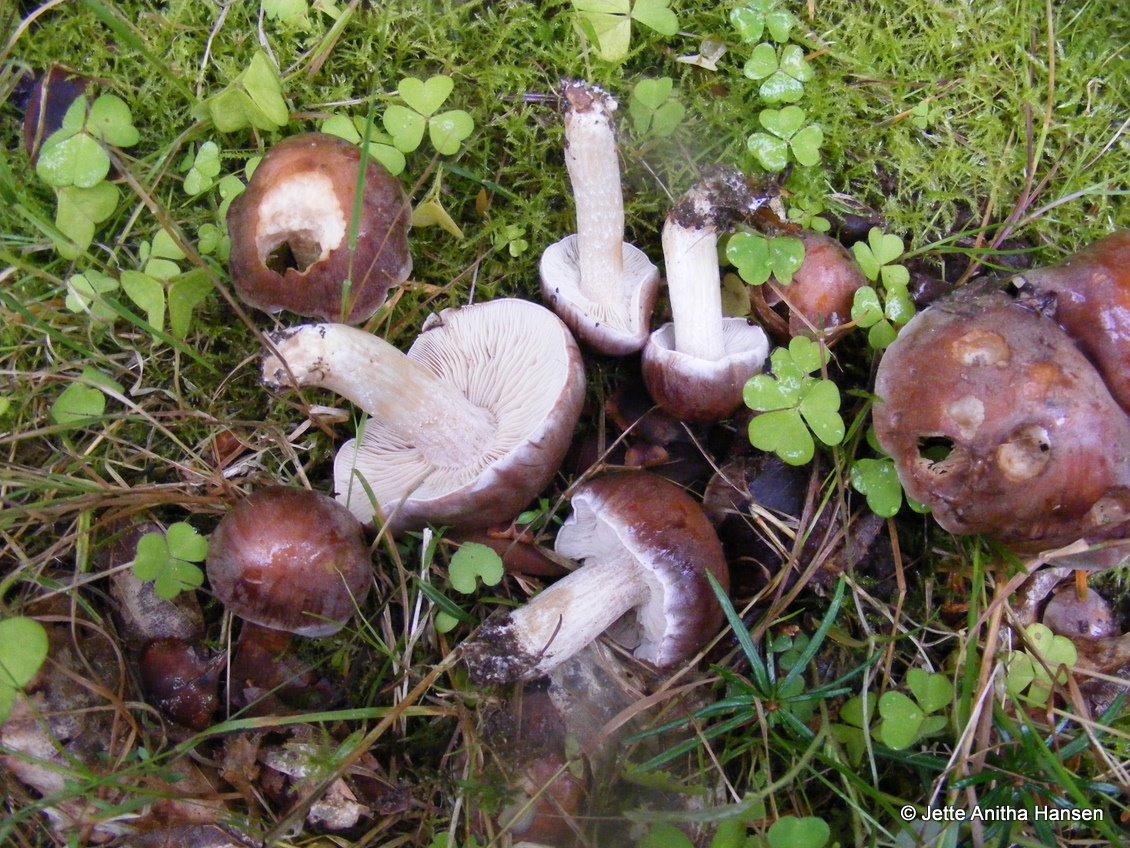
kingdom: Fungi
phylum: Basidiomycota
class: Agaricomycetes
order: Agaricales
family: Hymenogastraceae
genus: Hebeloma
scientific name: Hebeloma theobrominum
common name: rødbrun tåreblad
